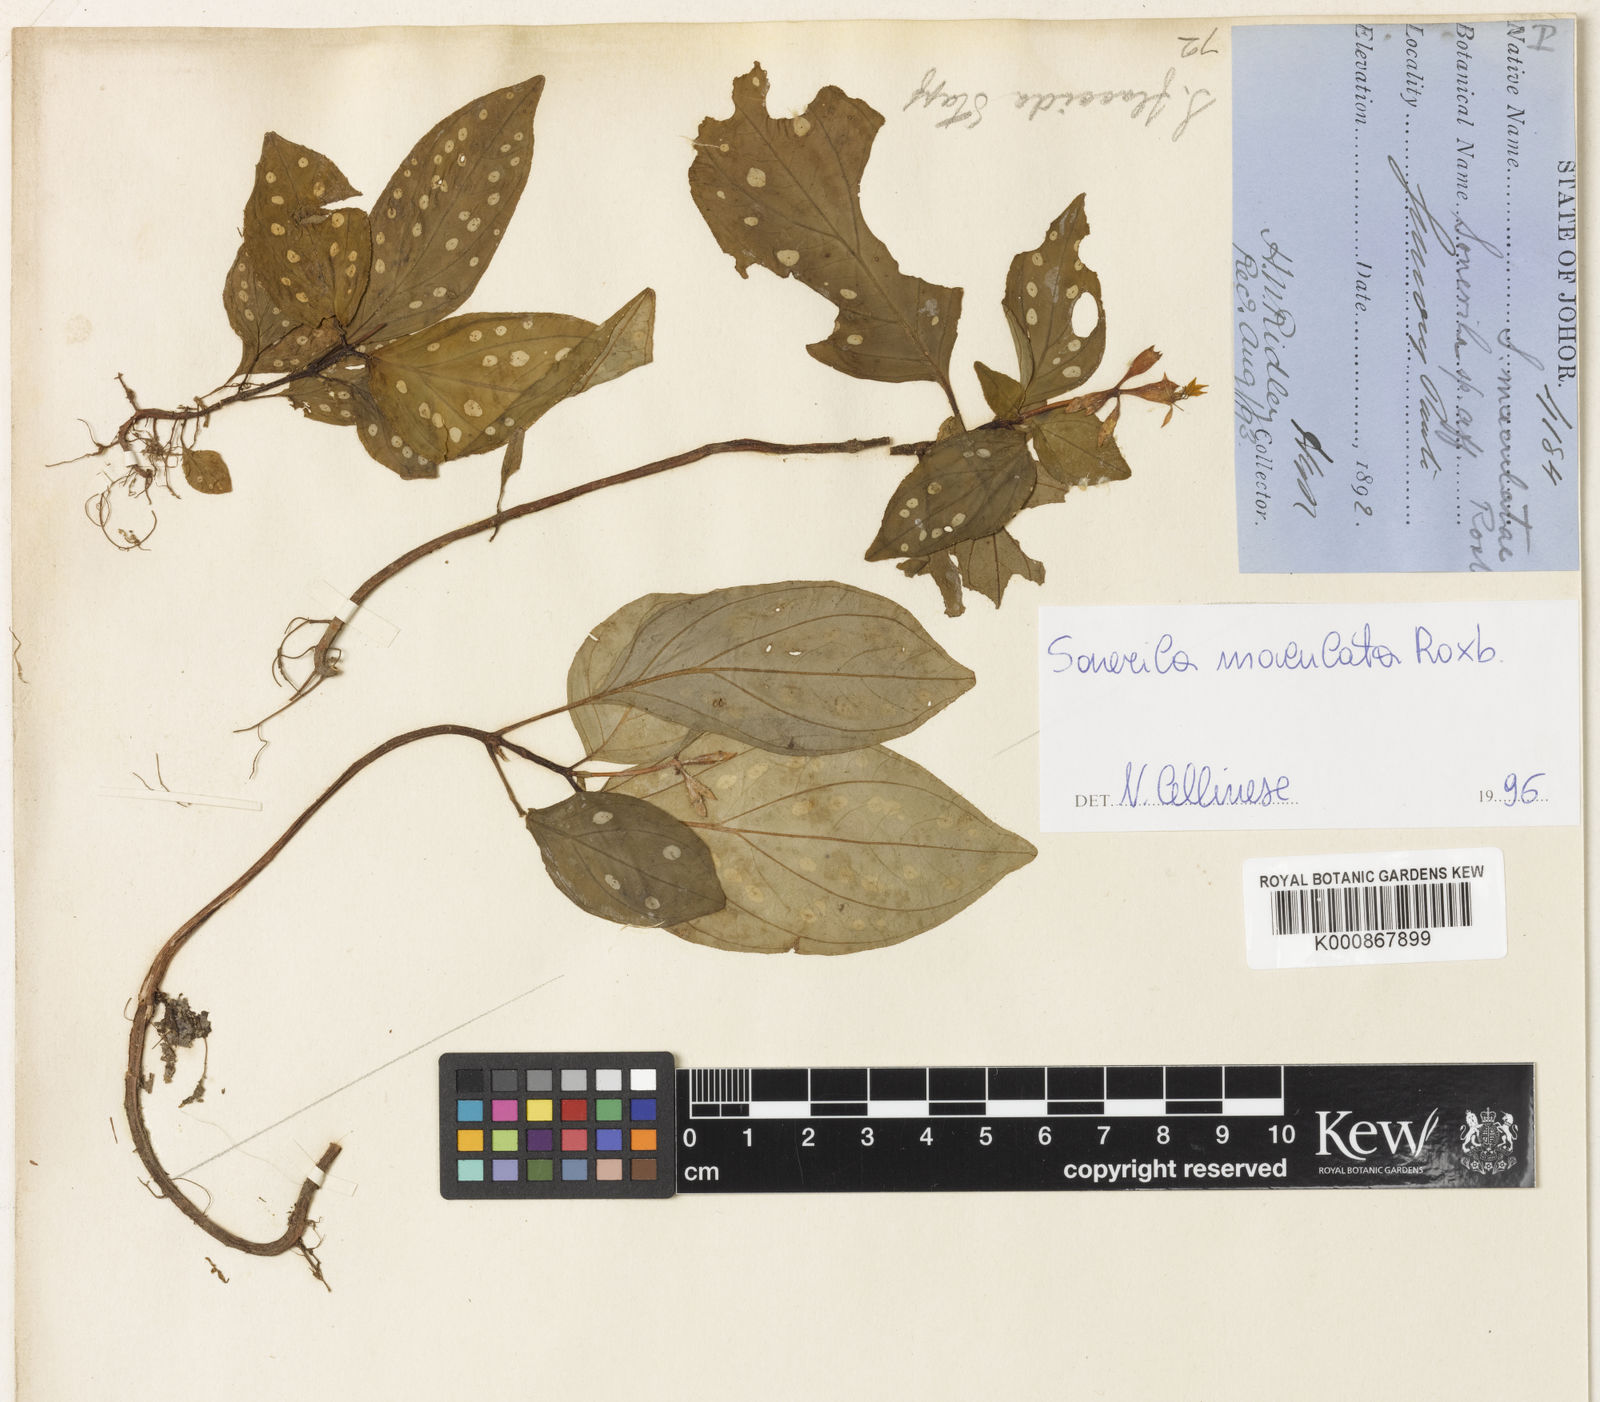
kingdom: Plantae
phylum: Tracheophyta
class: Magnoliopsida
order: Myrtales
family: Melastomataceae
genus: Sonerila
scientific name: Sonerila maculata
